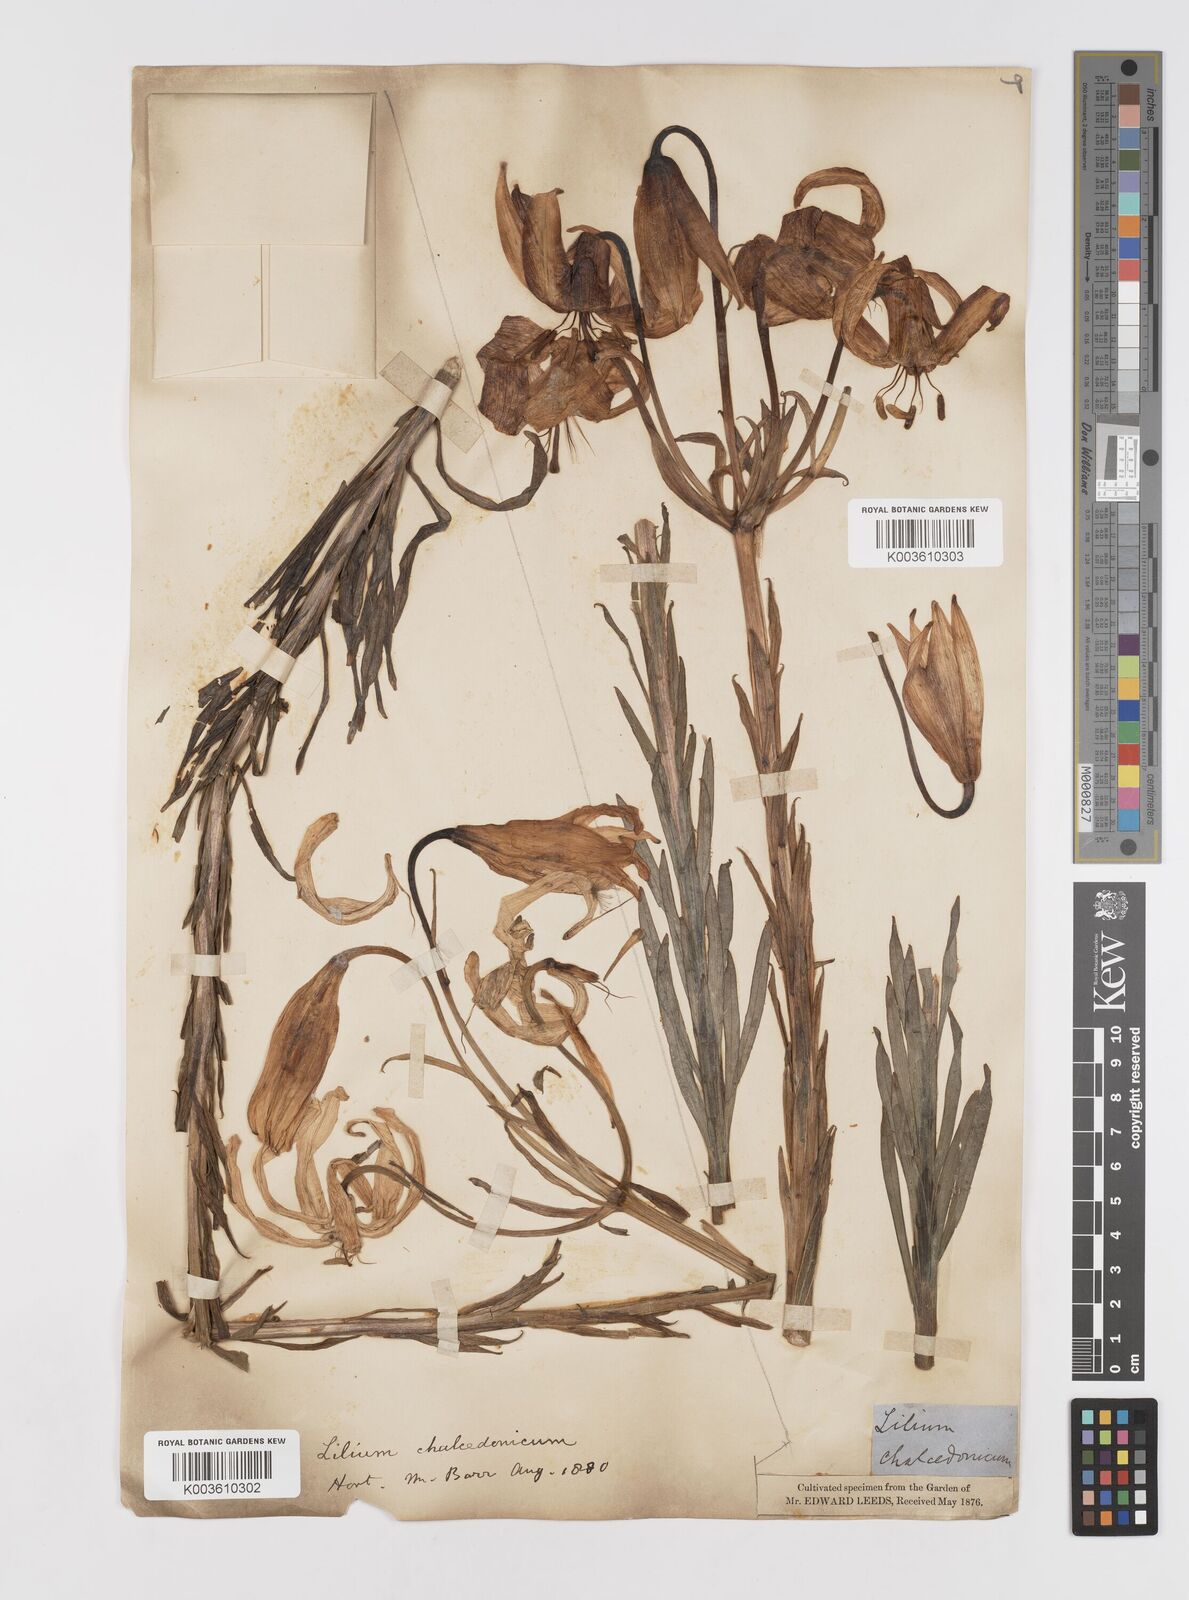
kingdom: Plantae
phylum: Tracheophyta
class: Liliopsida
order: Liliales
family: Liliaceae
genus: Lilium
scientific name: Lilium chalcedonicum
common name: Red martagon of constantinople
